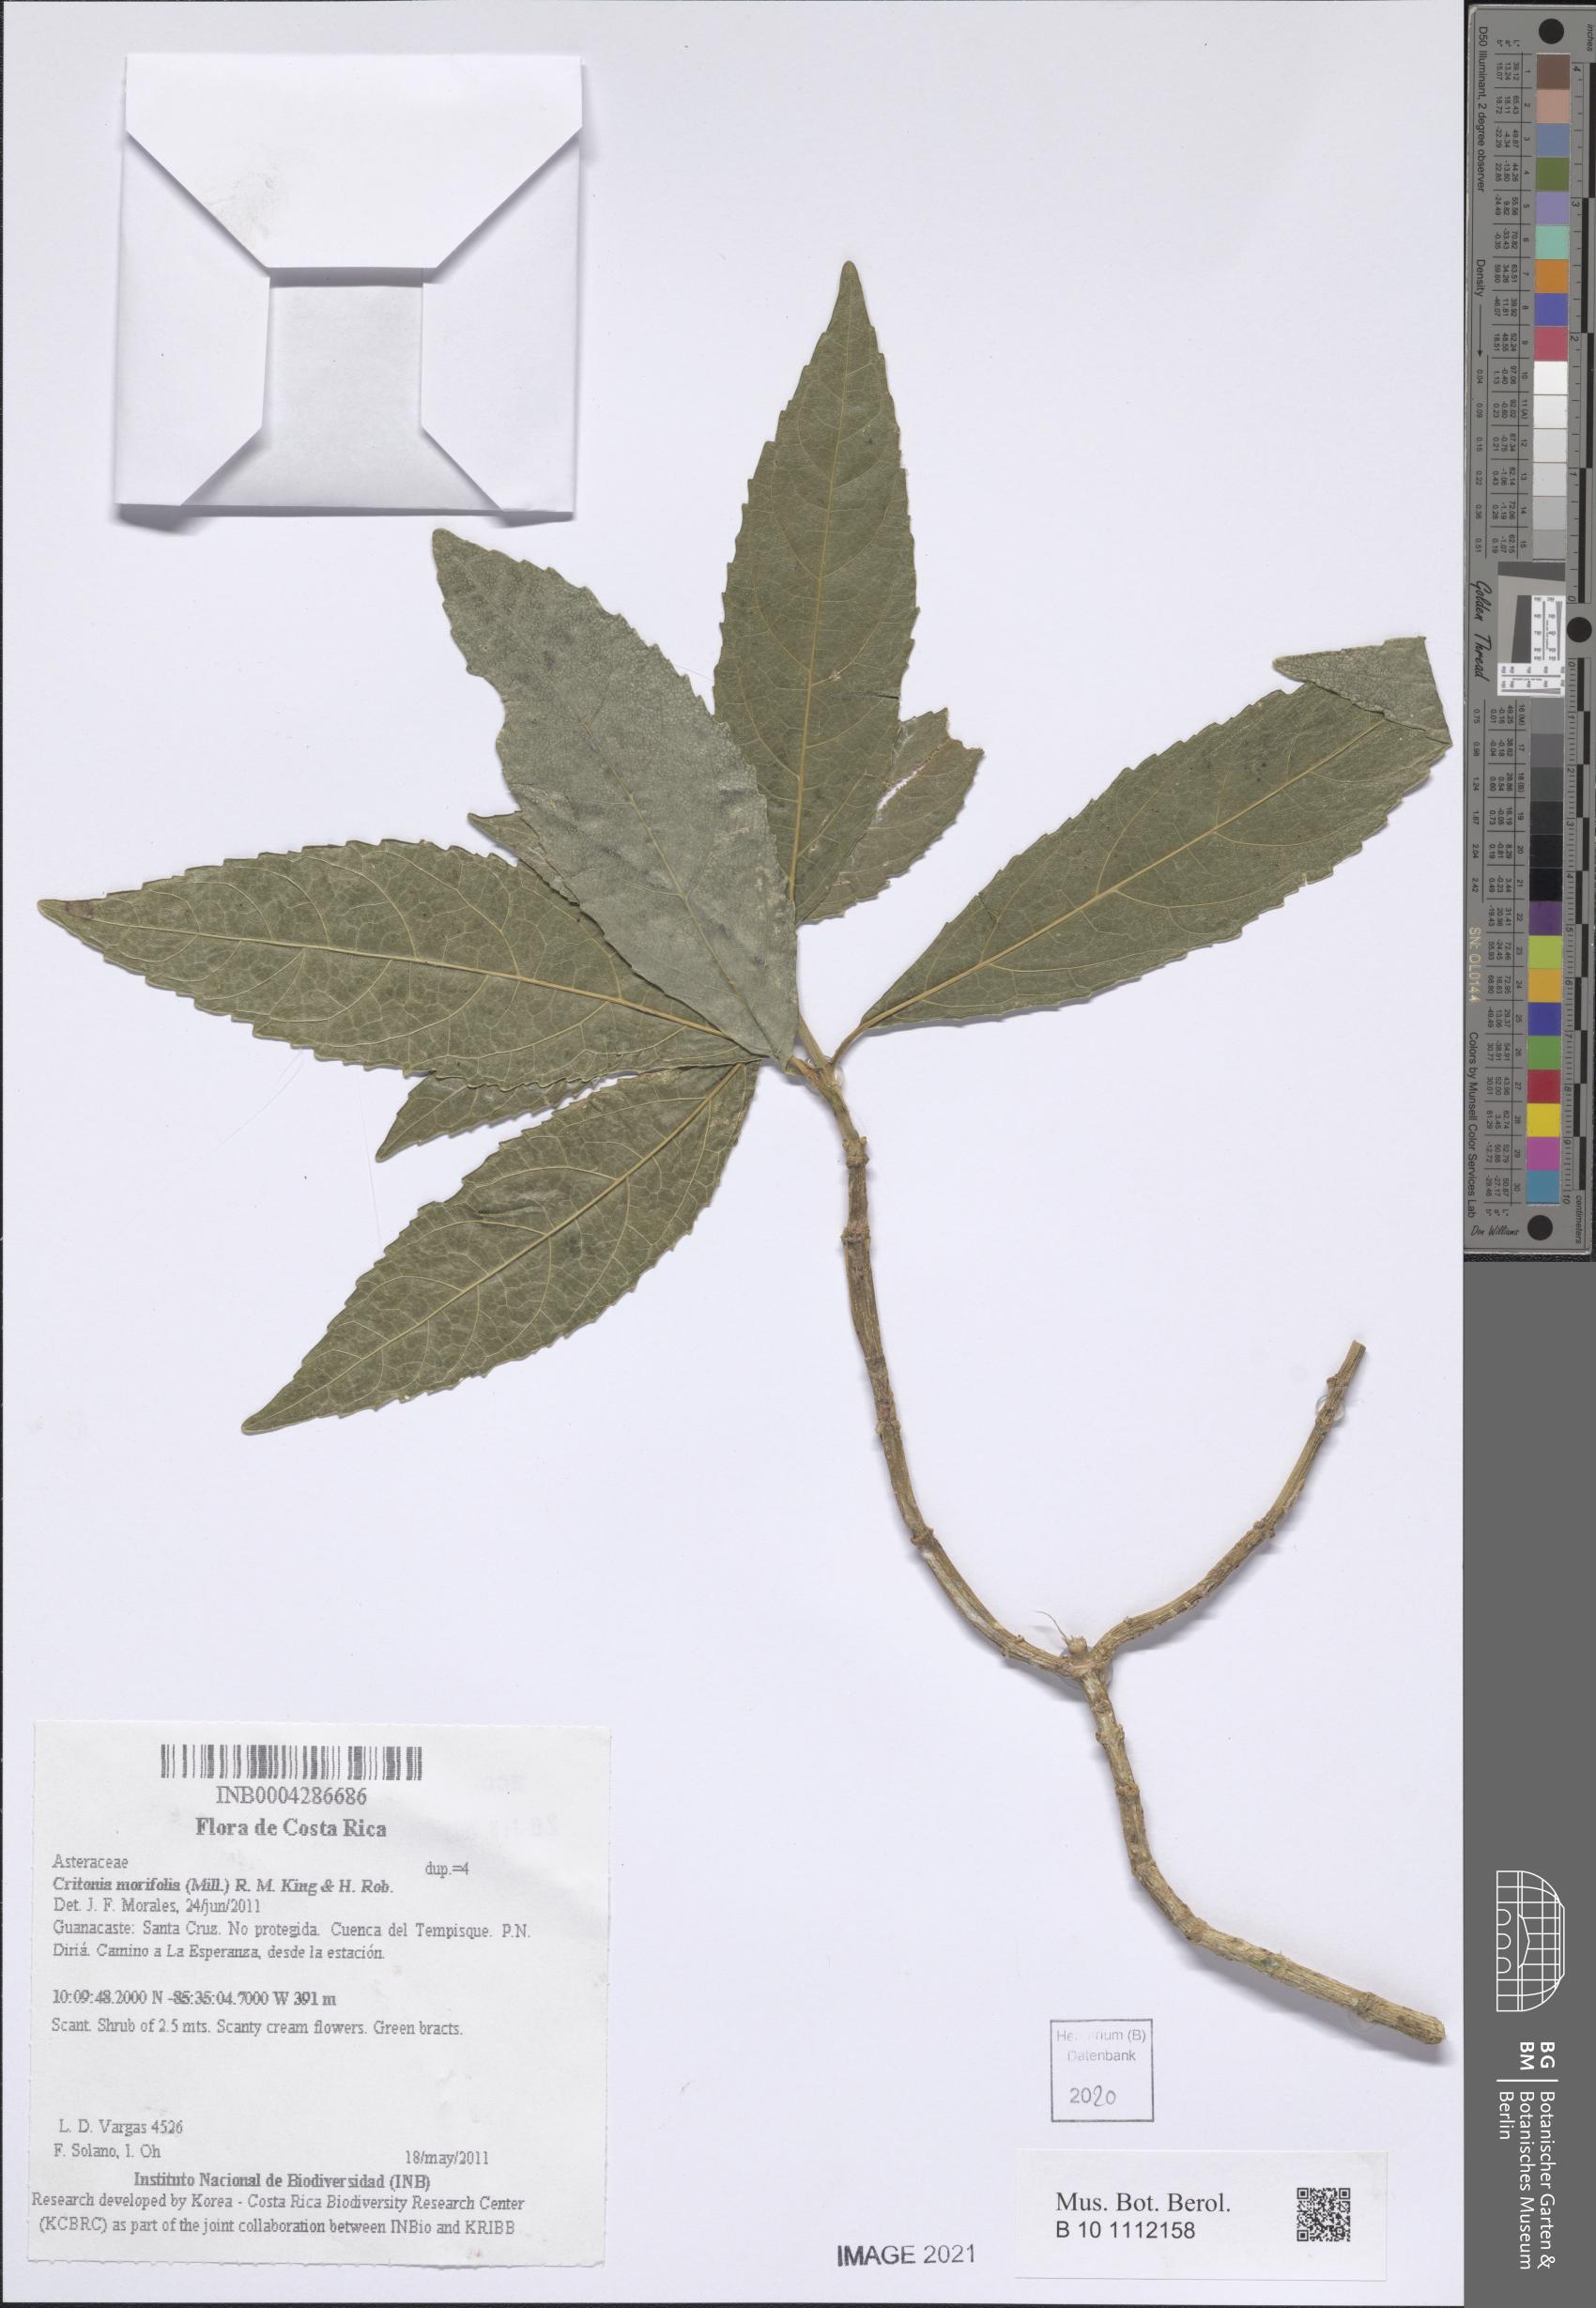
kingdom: Plantae
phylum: Tracheophyta
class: Magnoliopsida
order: Asterales
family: Asteraceae
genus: Critonia
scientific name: Critonia morifolia
